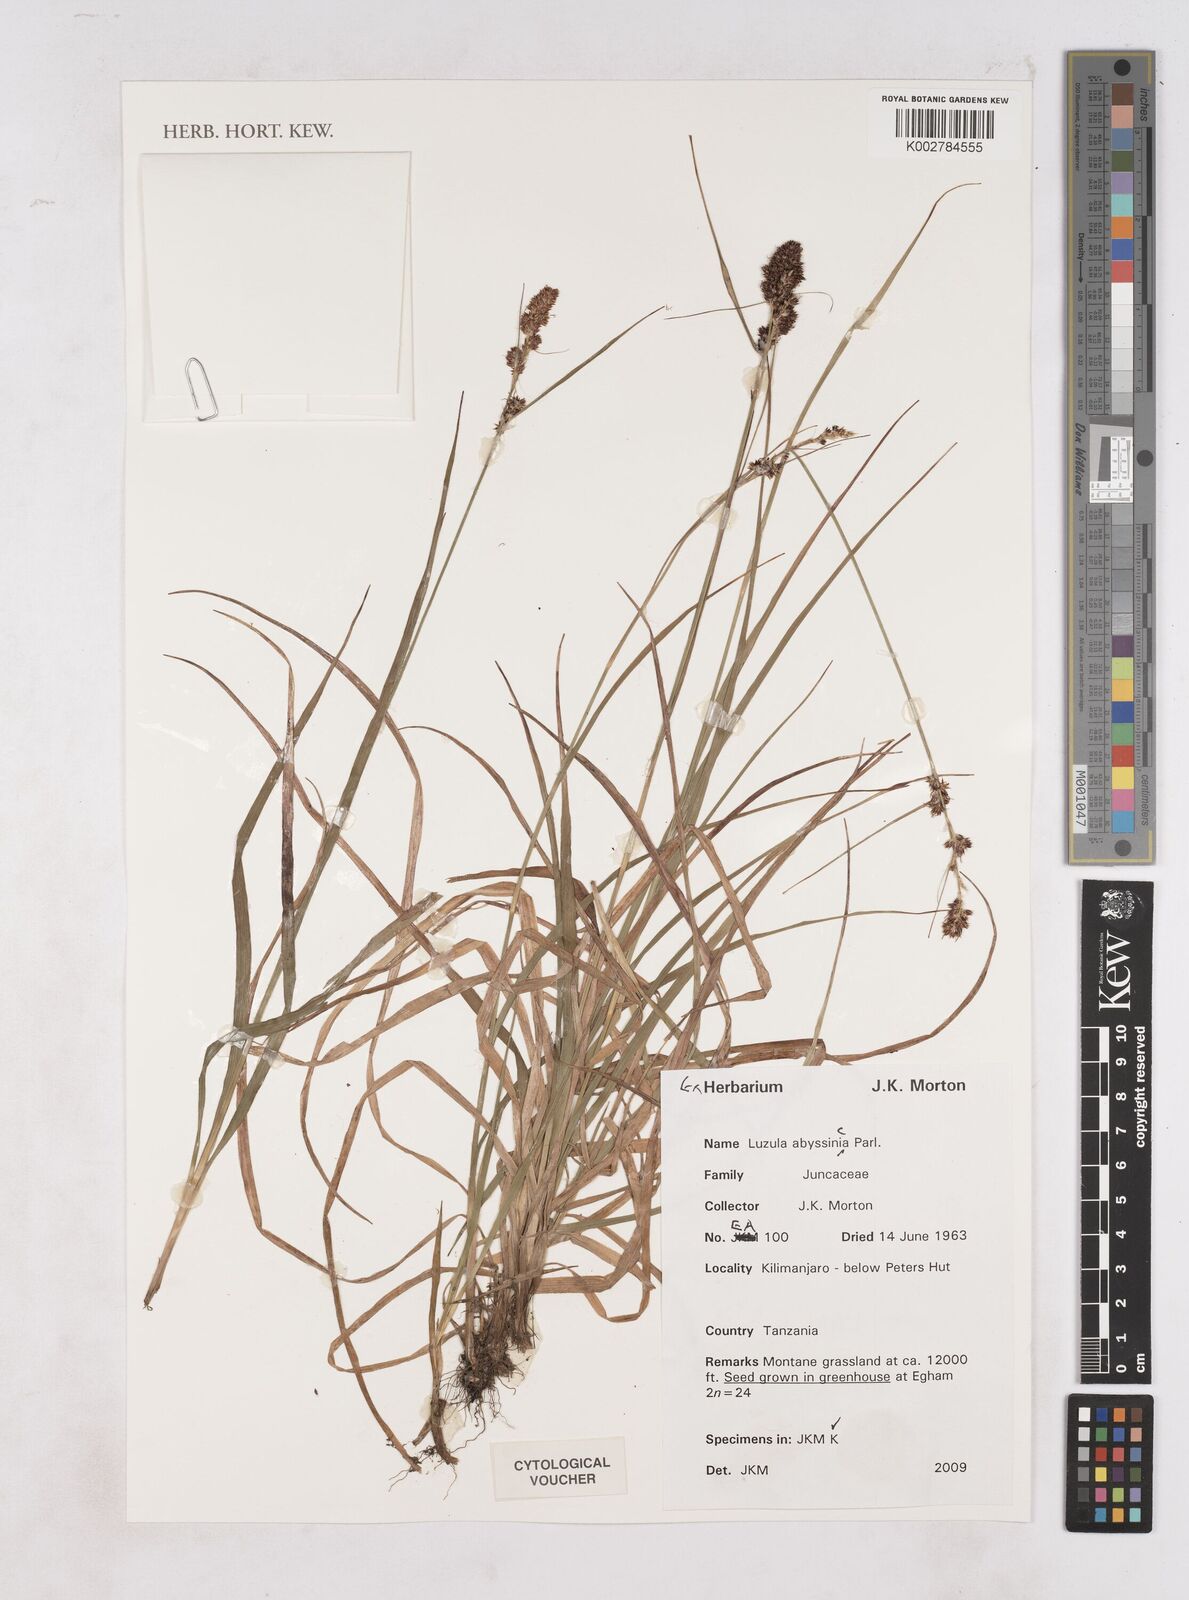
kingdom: Plantae
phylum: Tracheophyta
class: Liliopsida
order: Poales
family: Juncaceae
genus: Luzula
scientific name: Luzula abyssinica
